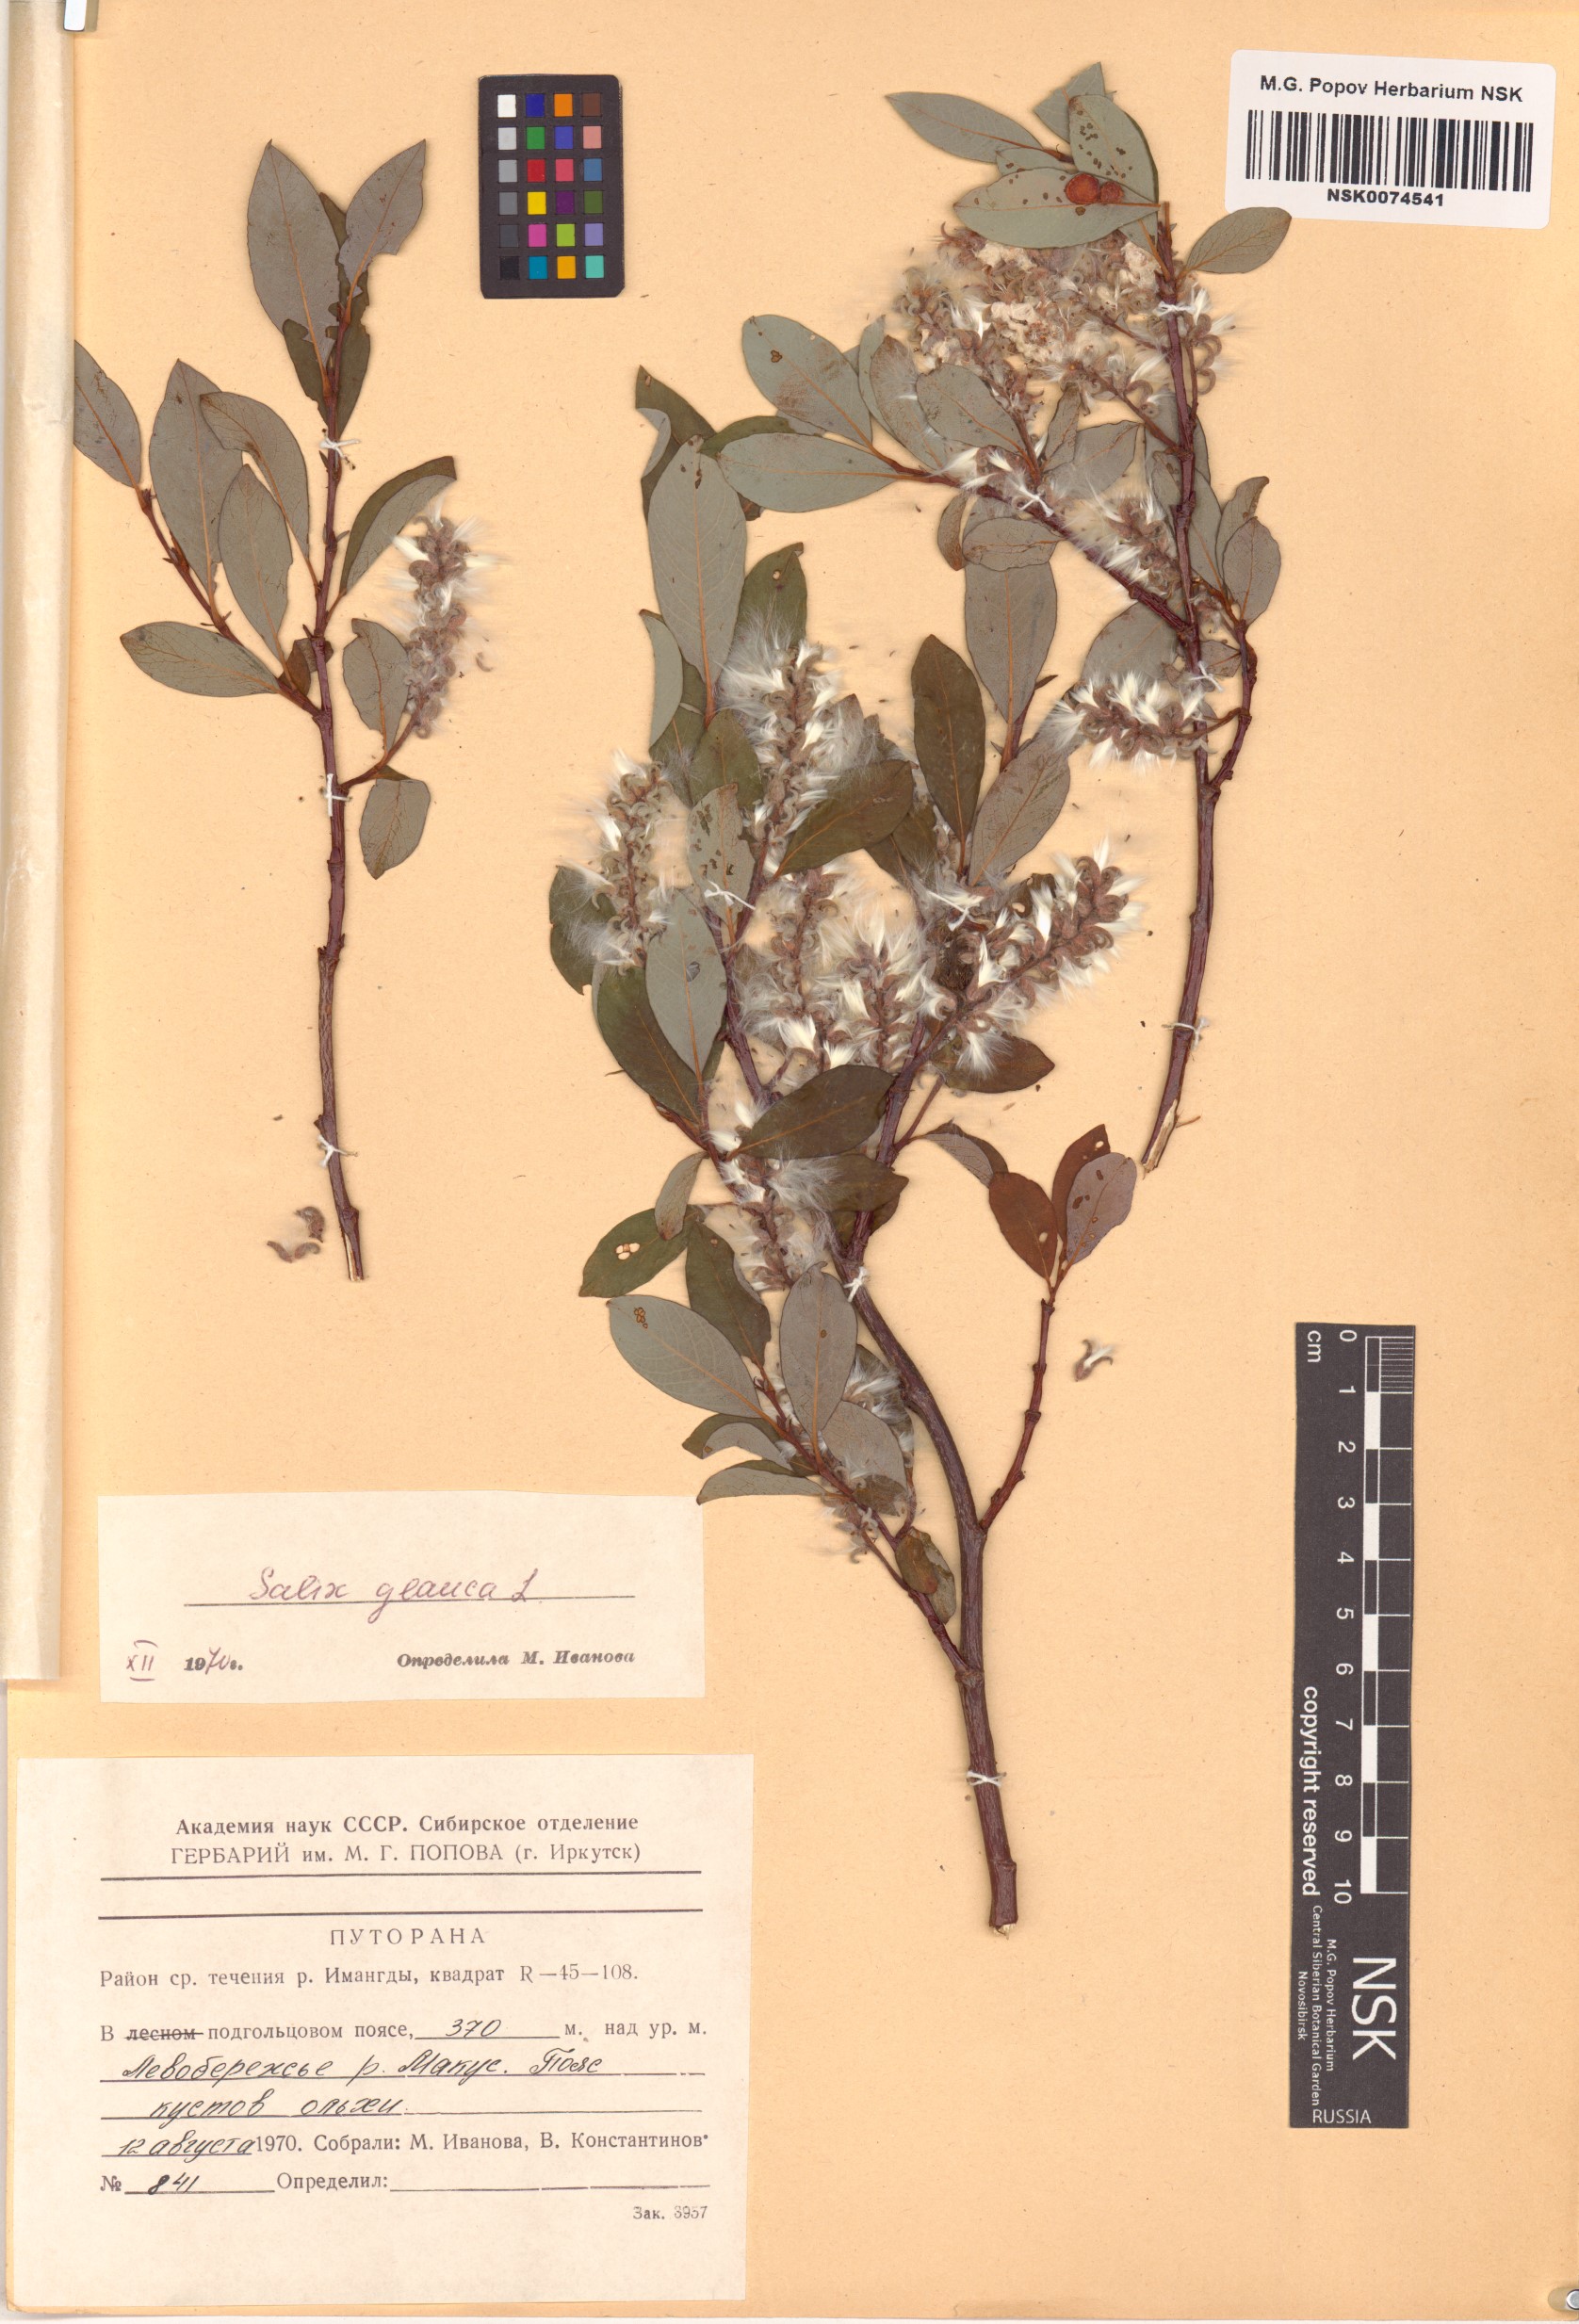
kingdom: Plantae
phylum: Tracheophyta
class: Magnoliopsida
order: Malpighiales
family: Salicaceae
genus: Salix
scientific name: Salix glauca
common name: Glaucous willow
